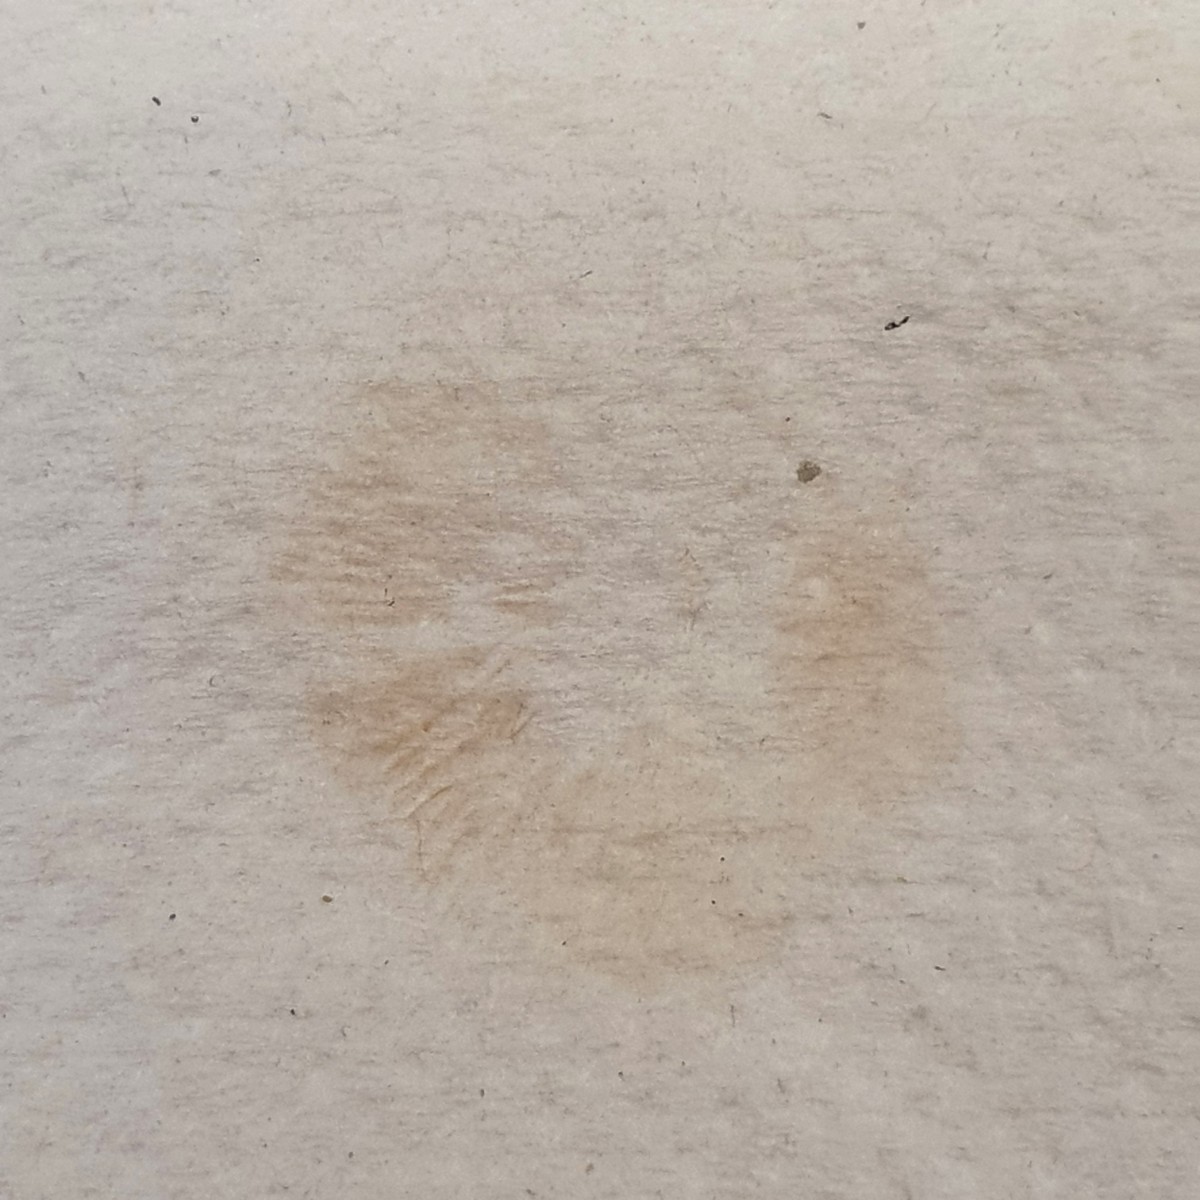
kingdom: Fungi
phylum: Basidiomycota
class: Agaricomycetes
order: Agaricales
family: Entolomataceae
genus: Entoloma
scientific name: Entoloma undatum
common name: bæltet rødblad
